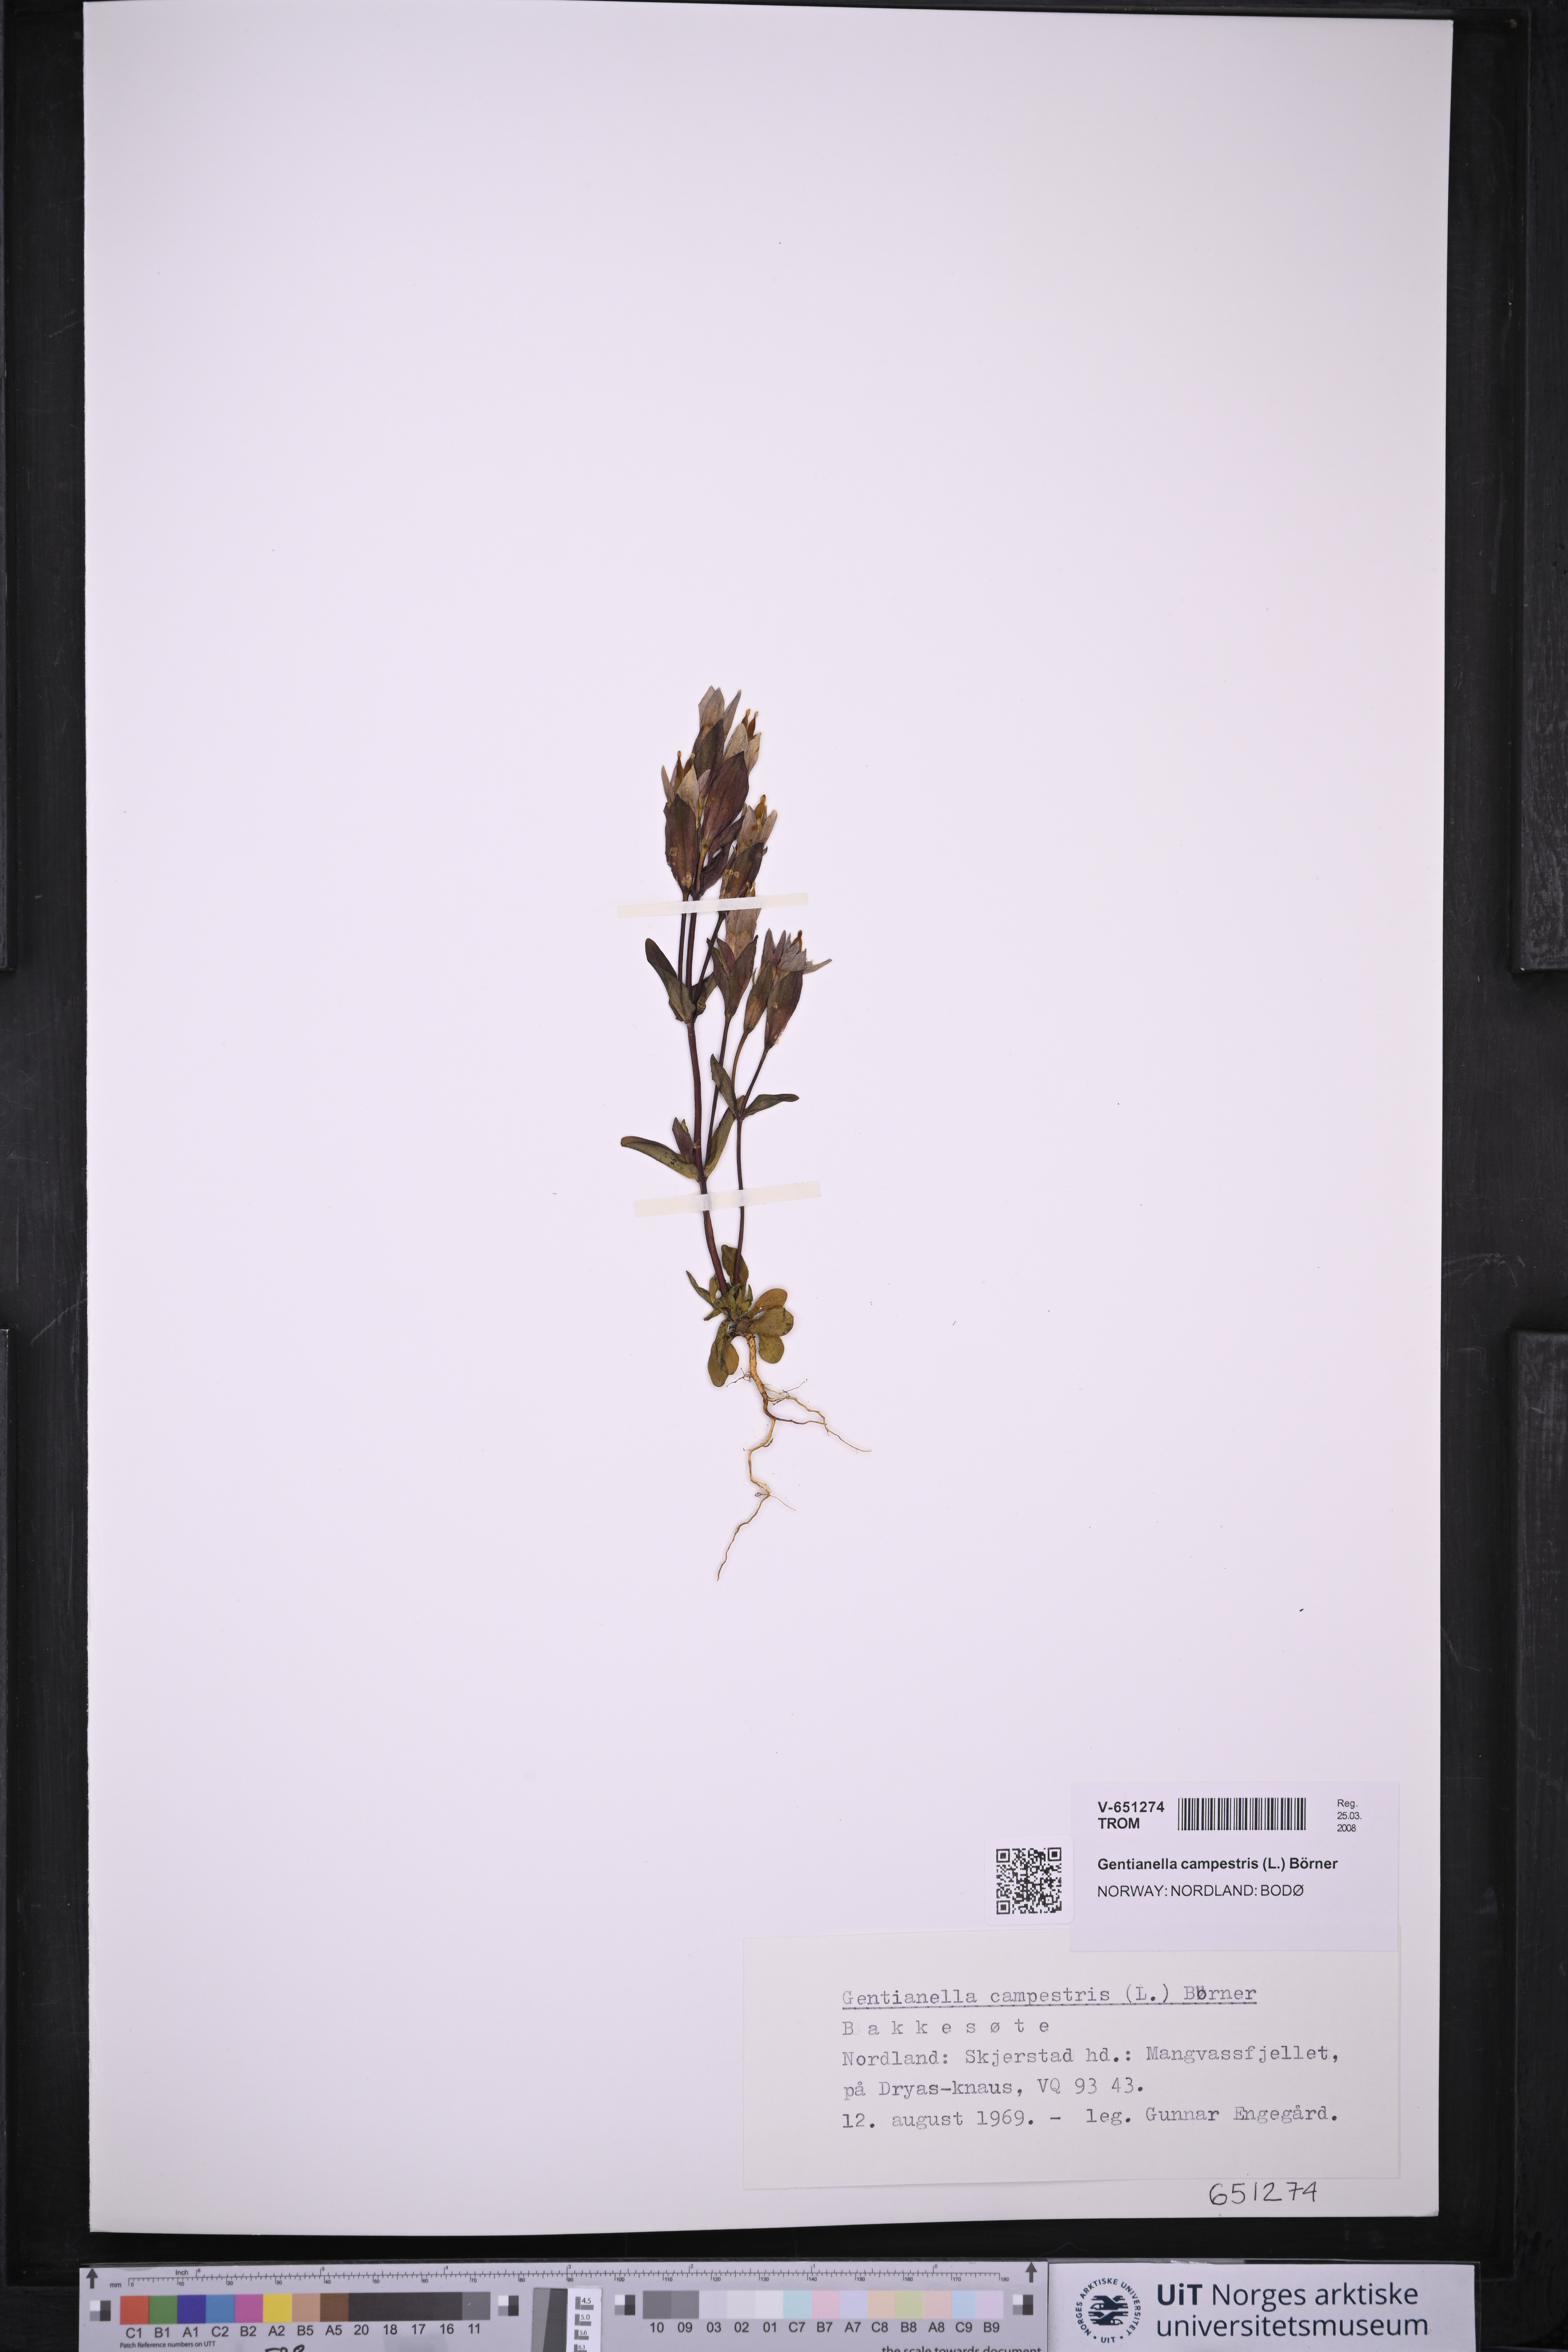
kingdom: Plantae
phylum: Tracheophyta
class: Magnoliopsida
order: Gentianales
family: Gentianaceae
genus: Gentianella
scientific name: Gentianella campestris
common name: Field gentian
